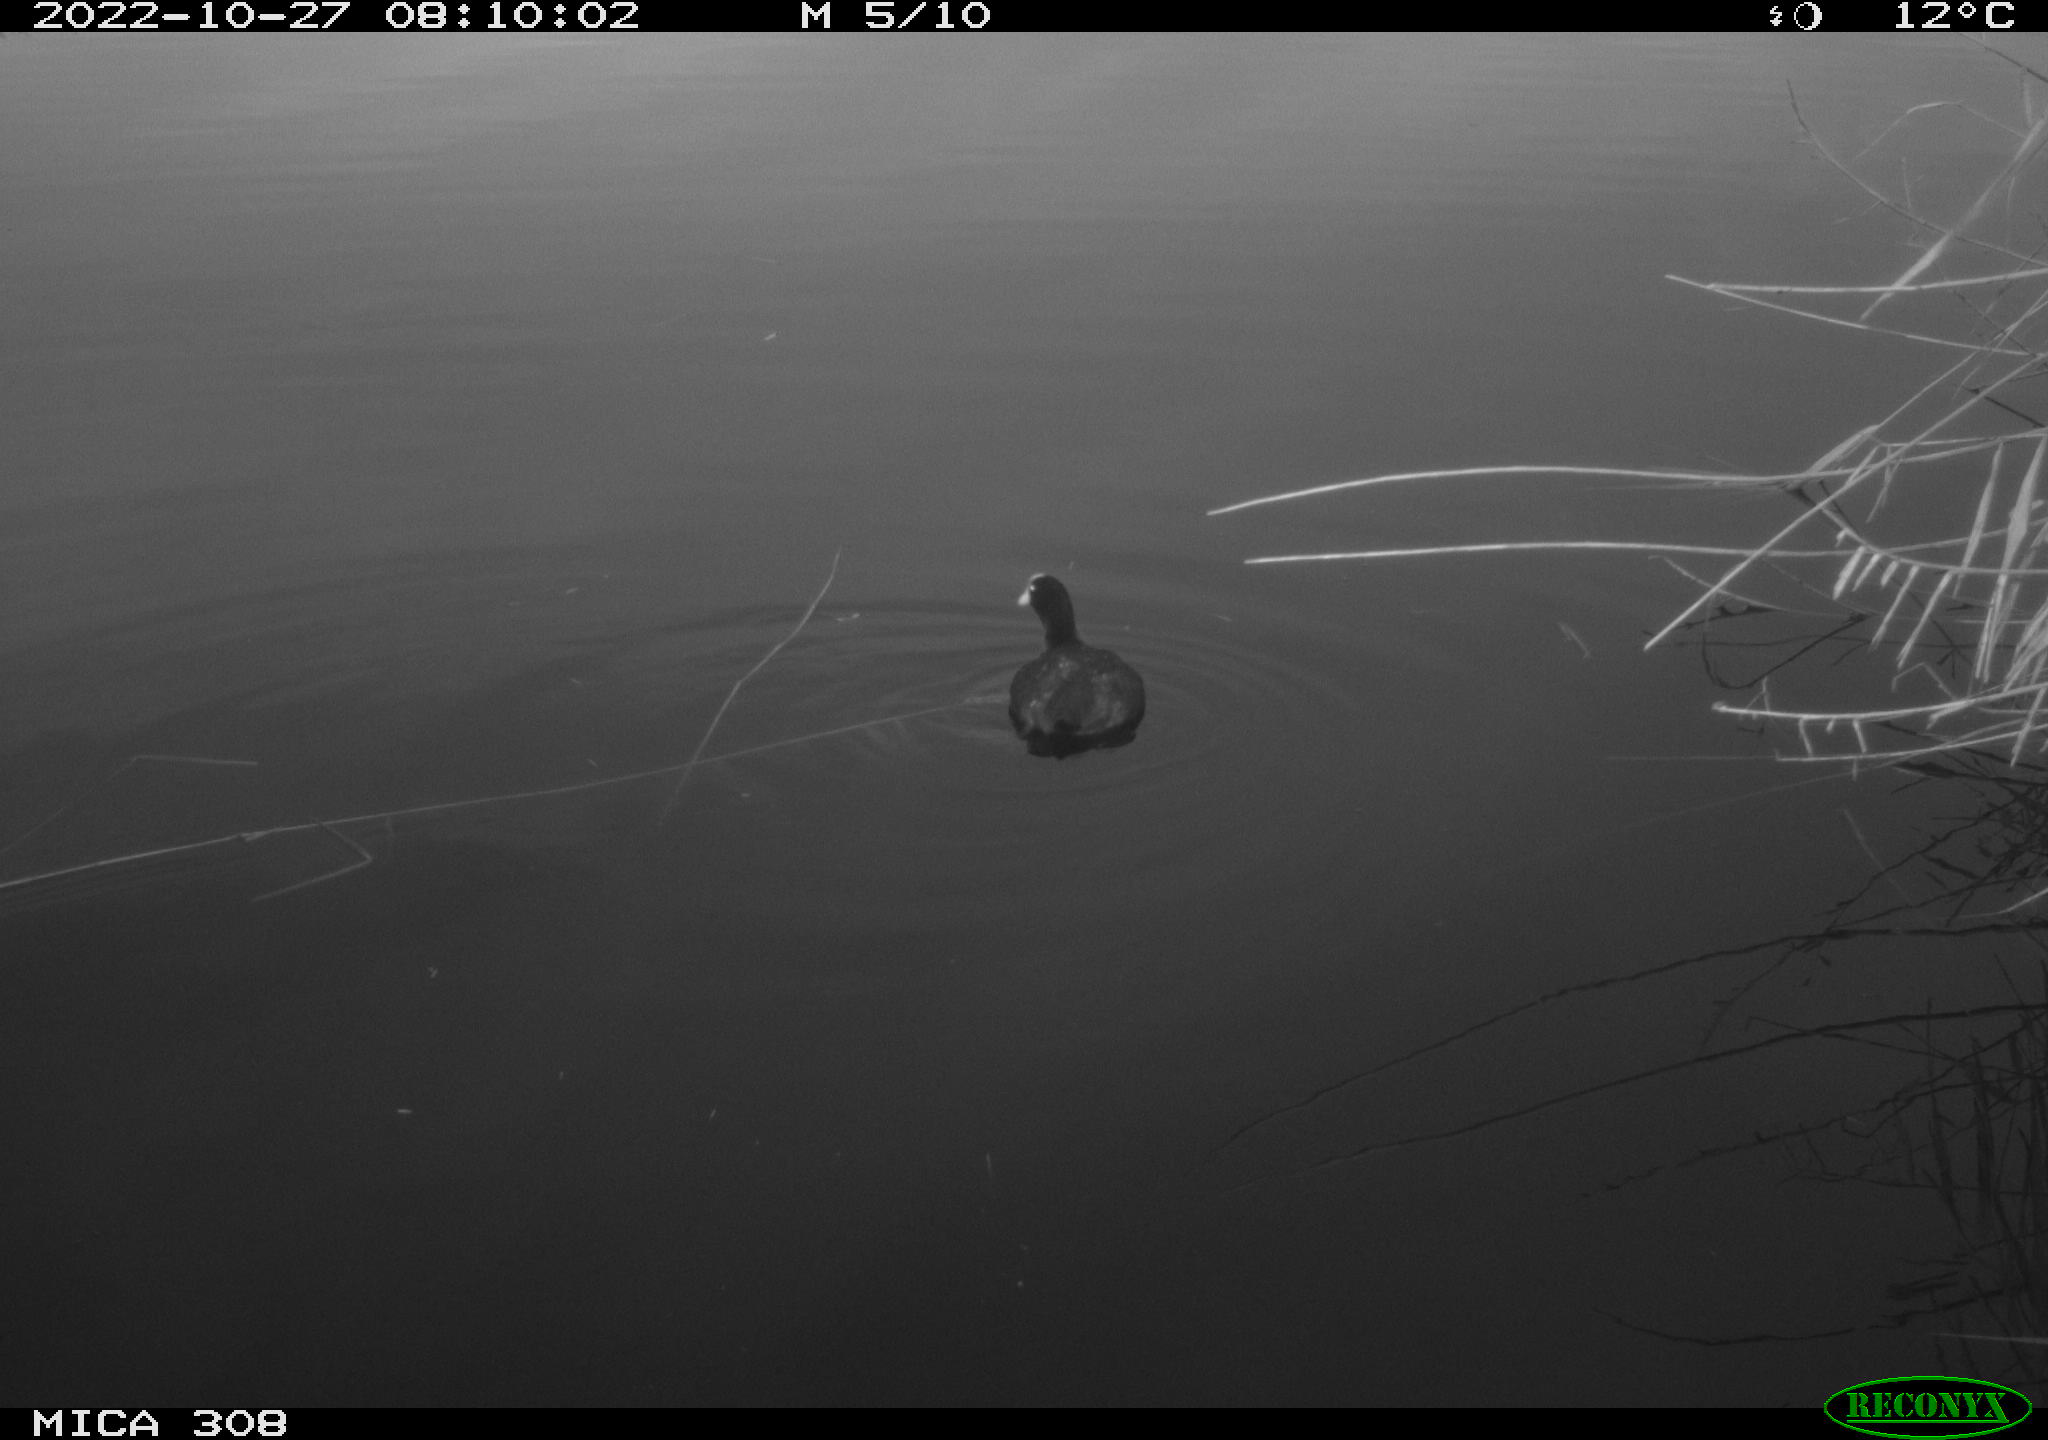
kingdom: Animalia
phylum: Chordata
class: Aves
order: Gruiformes
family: Rallidae
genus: Fulica
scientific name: Fulica atra
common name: Eurasian coot
